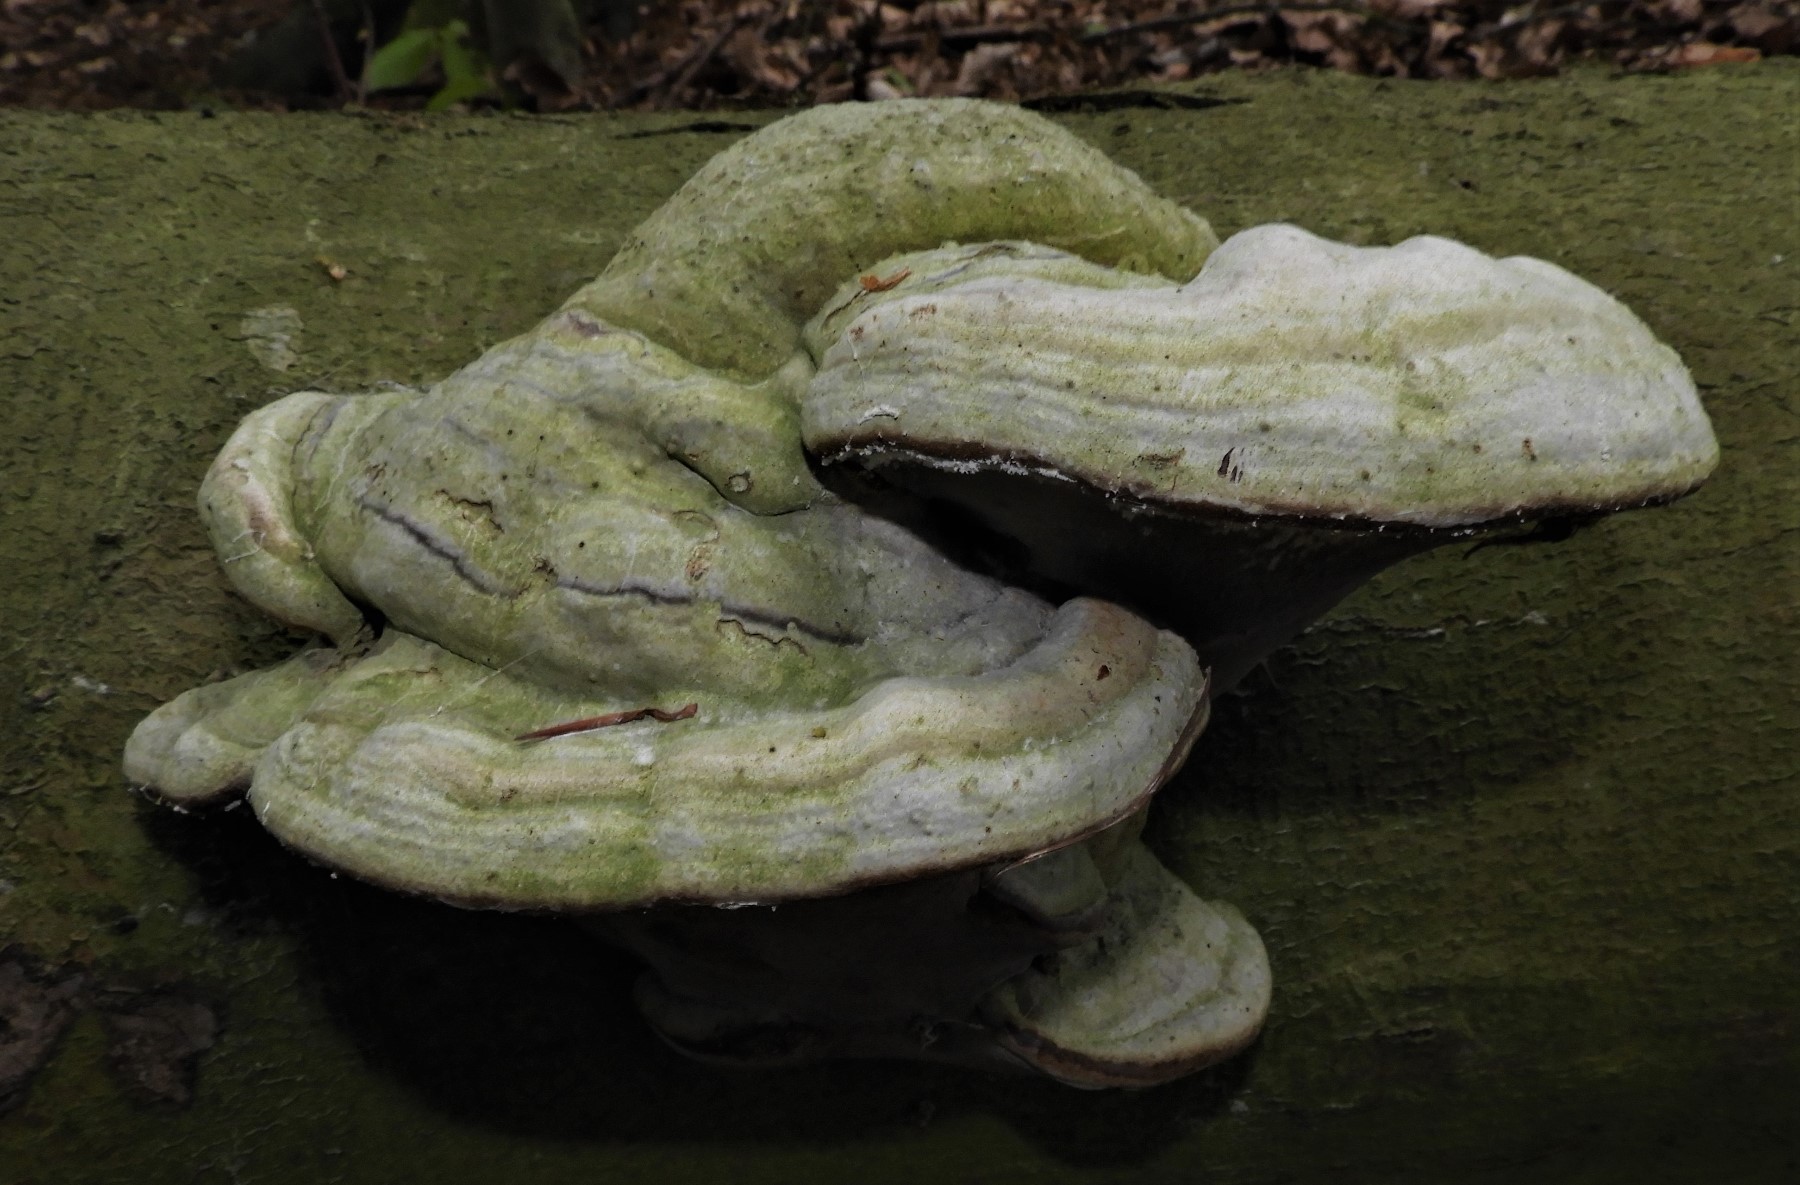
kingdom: Fungi
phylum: Basidiomycota
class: Agaricomycetes
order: Polyporales
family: Polyporaceae
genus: Fomes
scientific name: Fomes fomentarius
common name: tøndersvamp
